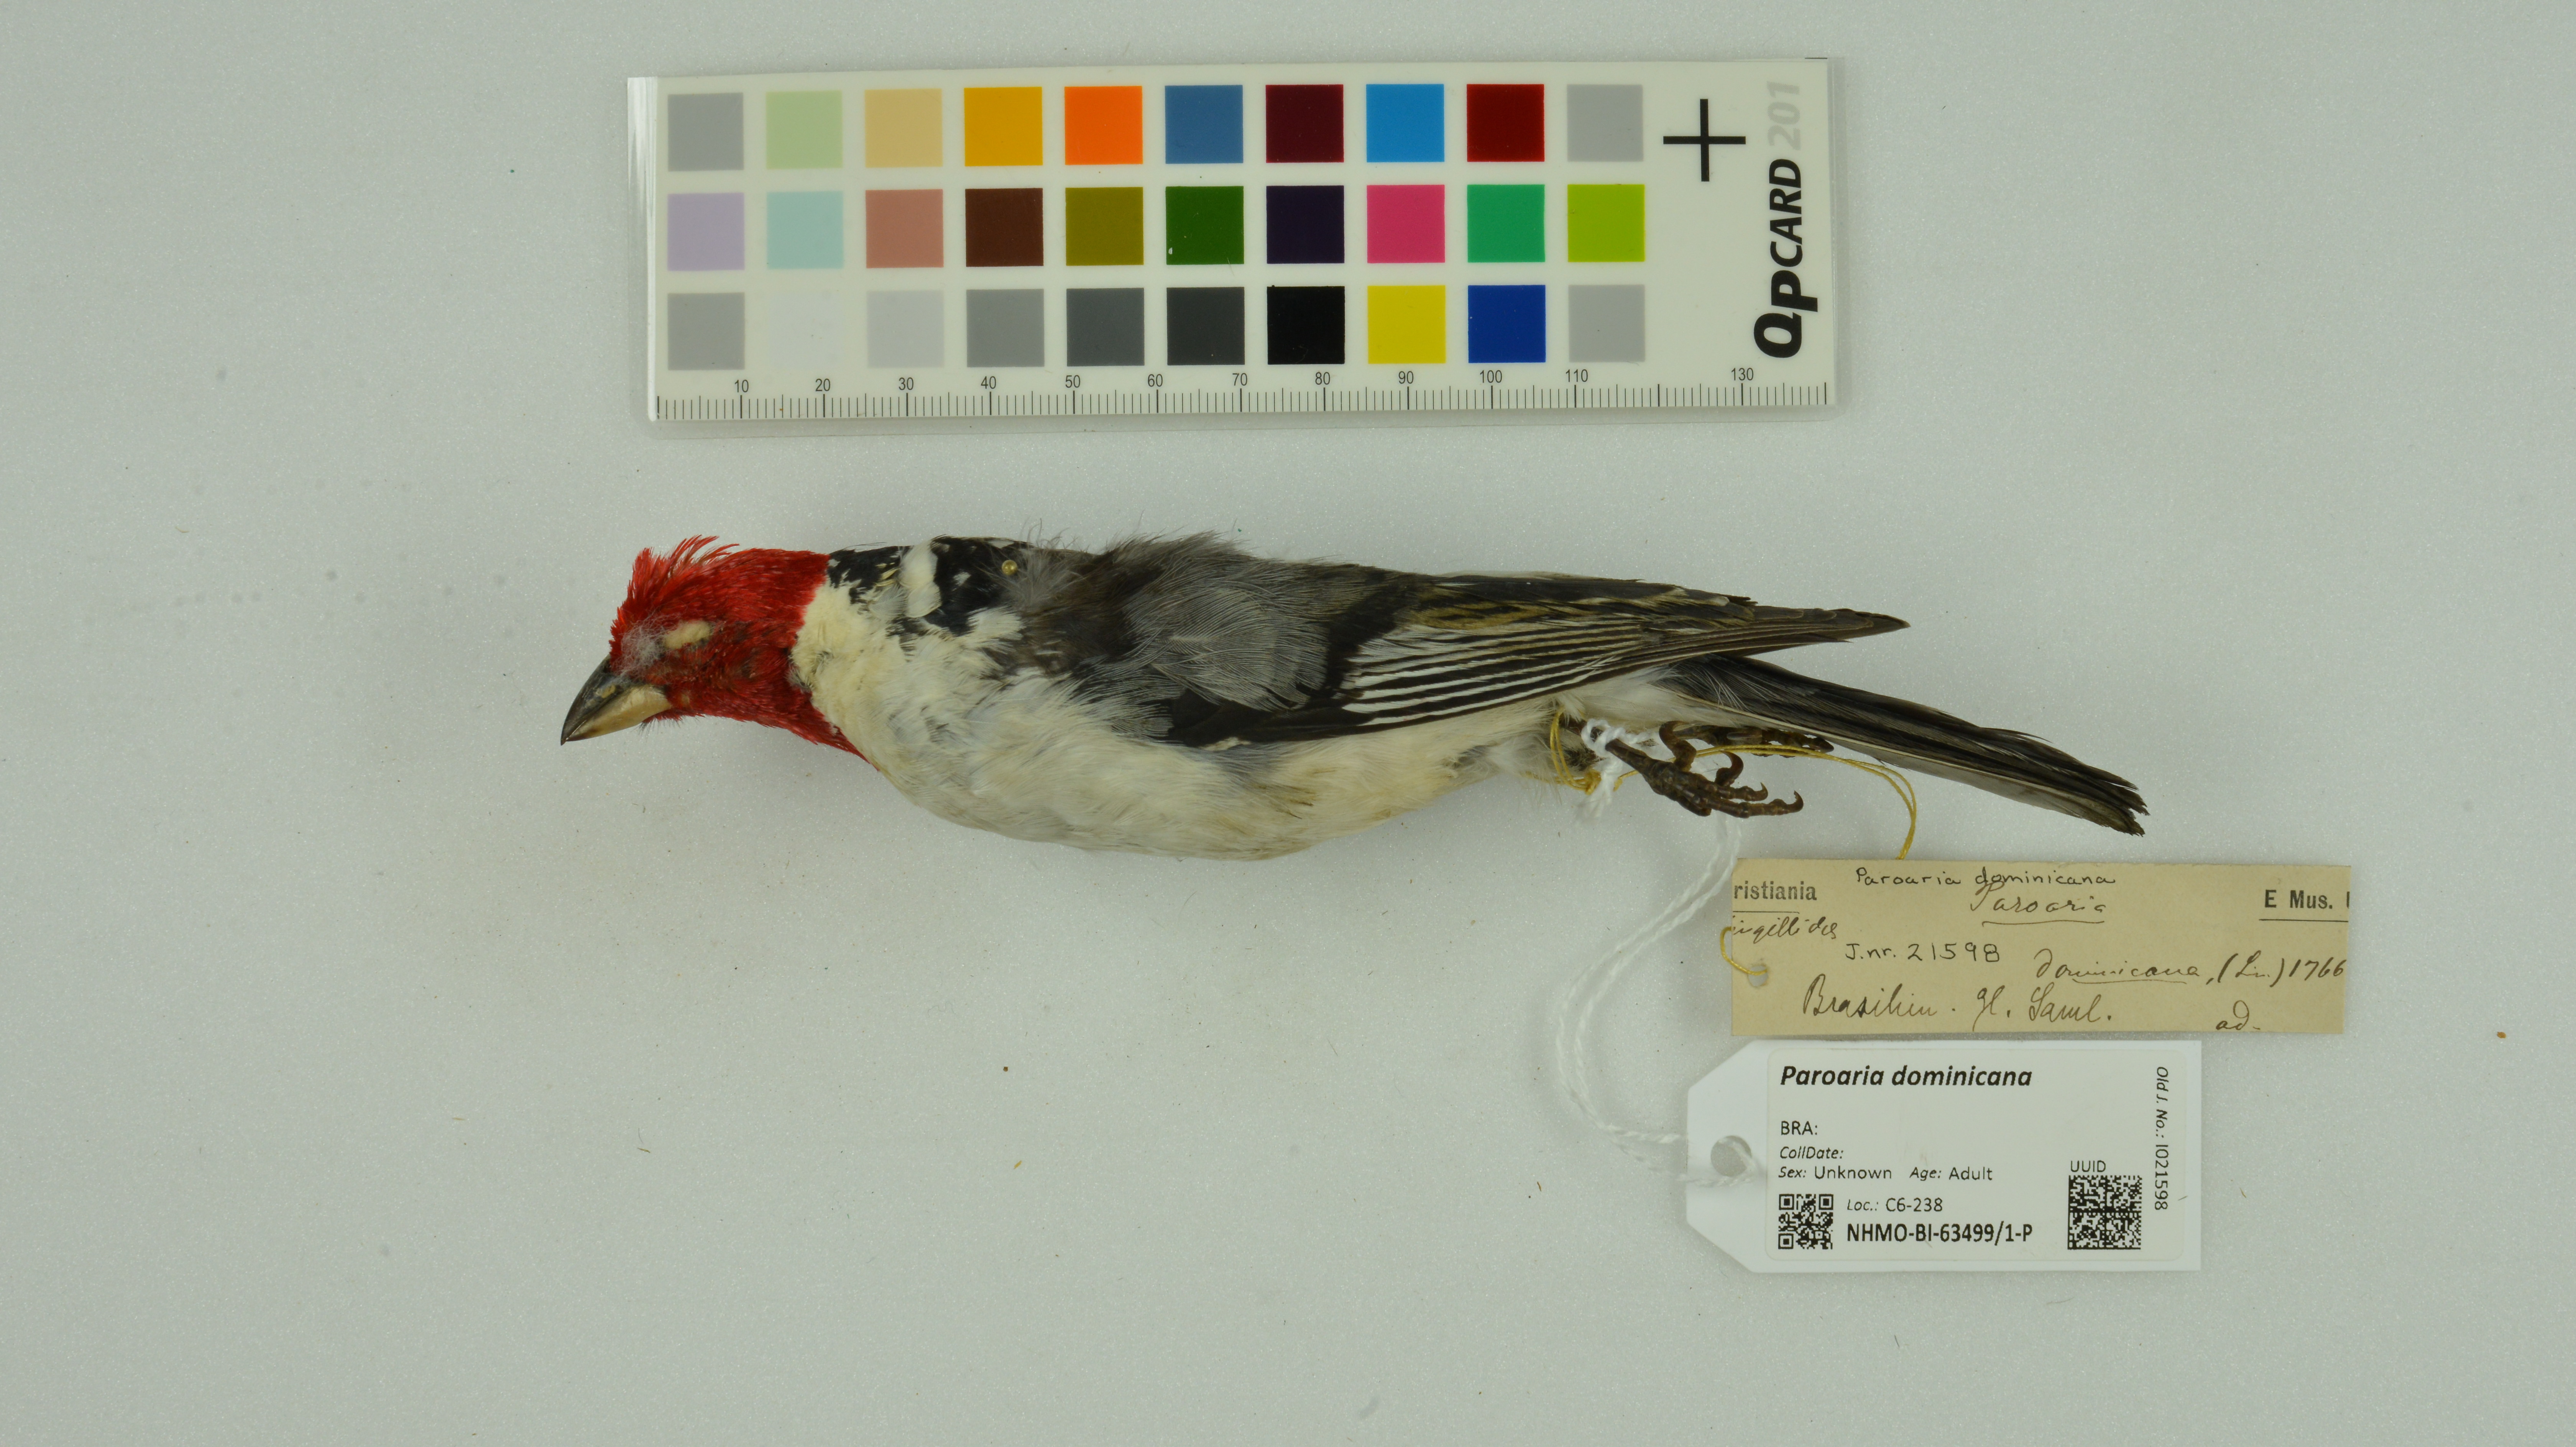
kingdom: Animalia
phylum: Chordata
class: Aves
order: Passeriformes
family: Thraupidae
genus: Paroaria
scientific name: Paroaria dominicana
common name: Red-cowled cardinal
